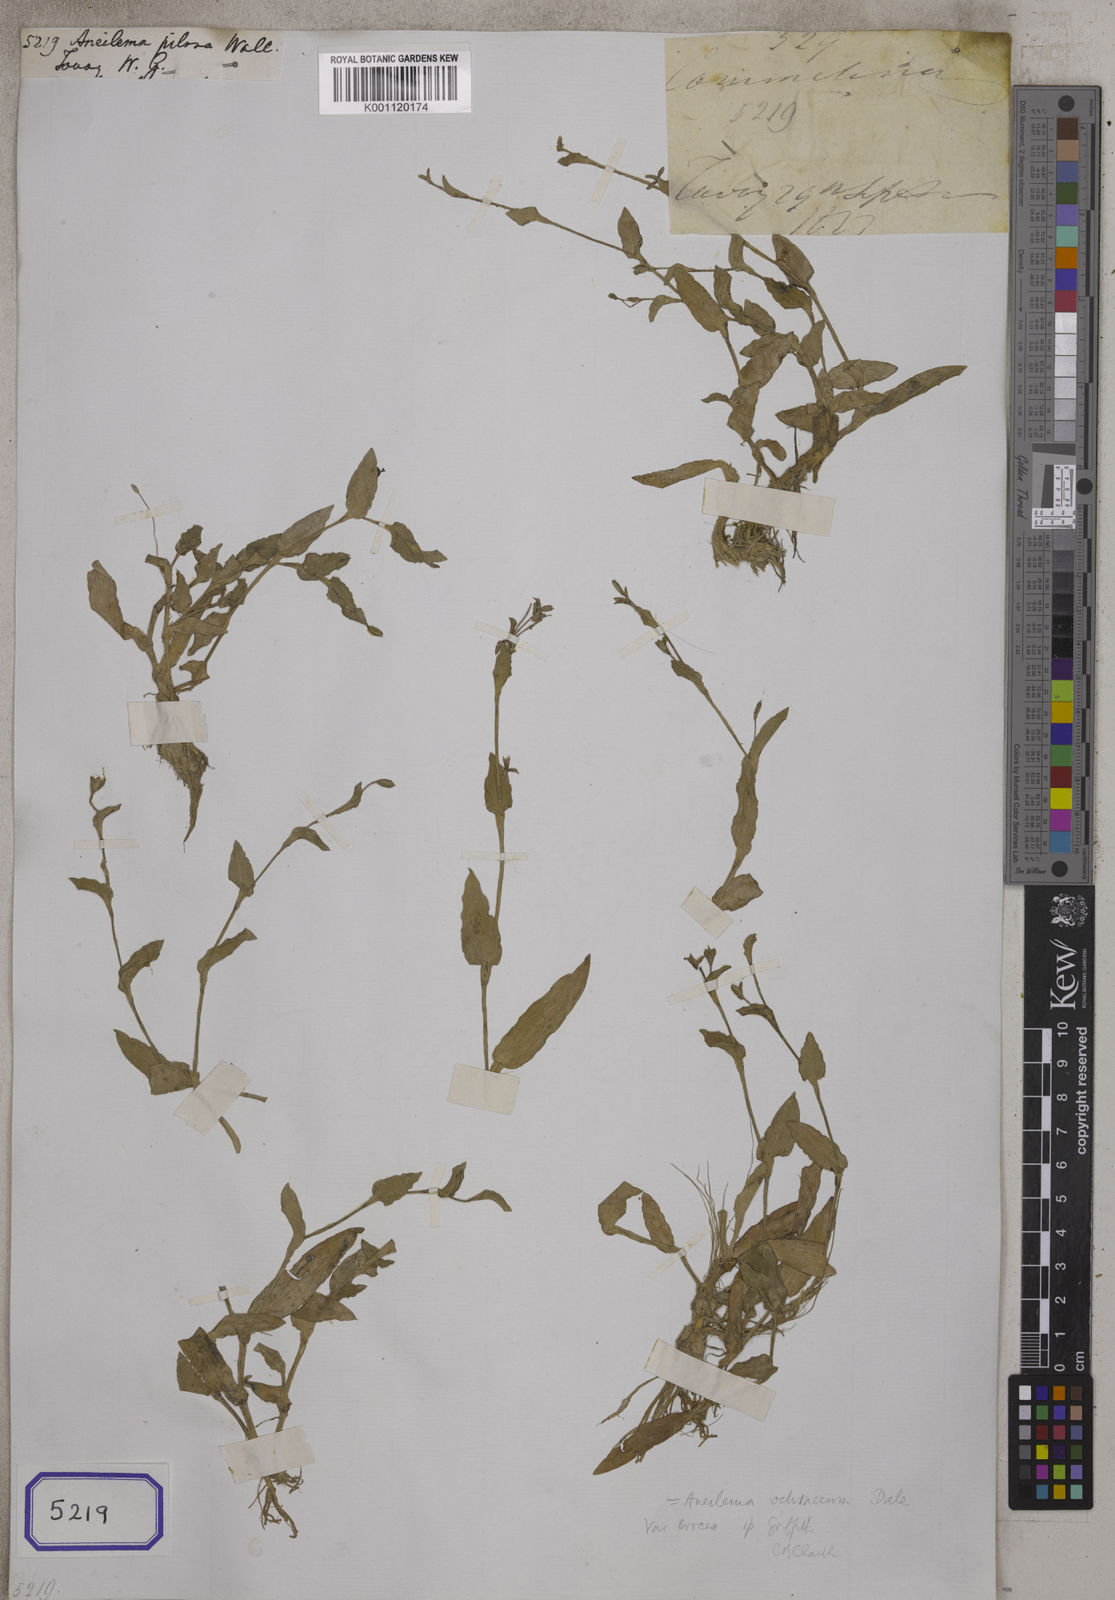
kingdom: Plantae
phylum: Tracheophyta
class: Liliopsida
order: Commelinales
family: Commelinaceae
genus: Murdannia
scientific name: Murdannia crocea
